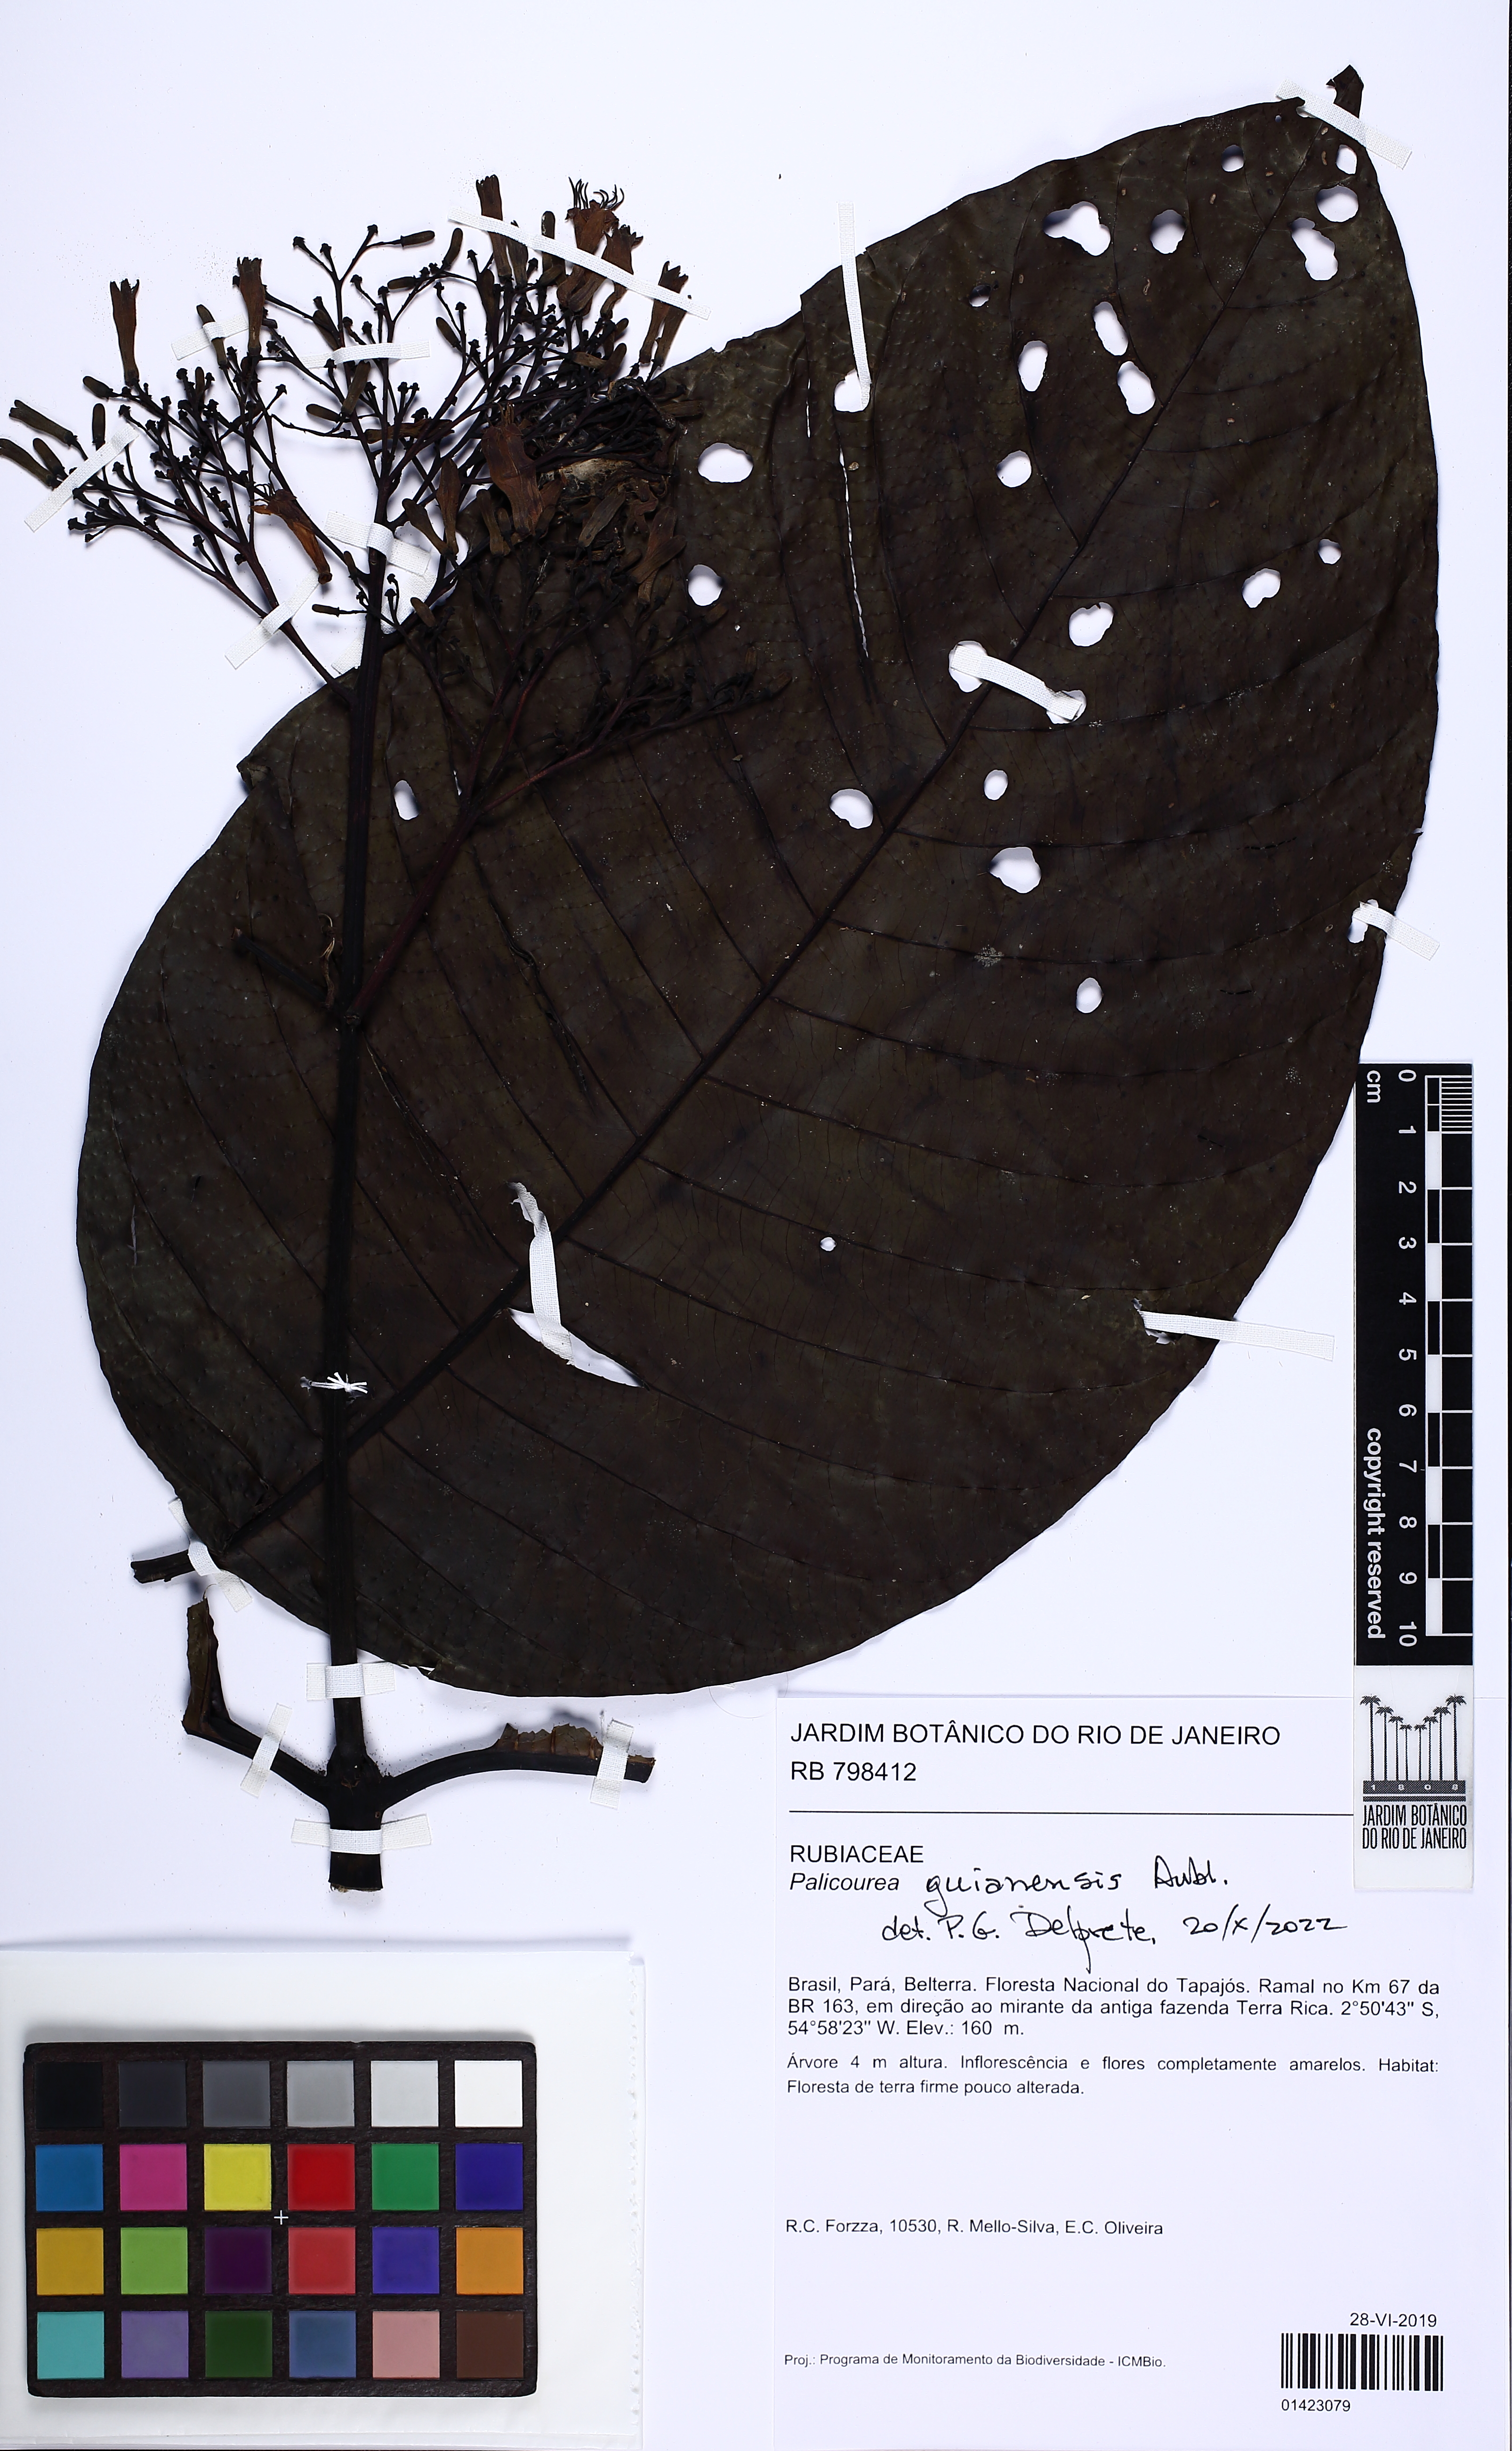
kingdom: Plantae
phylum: Tracheophyta
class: Magnoliopsida
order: Gentianales
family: Rubiaceae
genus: Palicourea
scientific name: Palicourea guianensis
